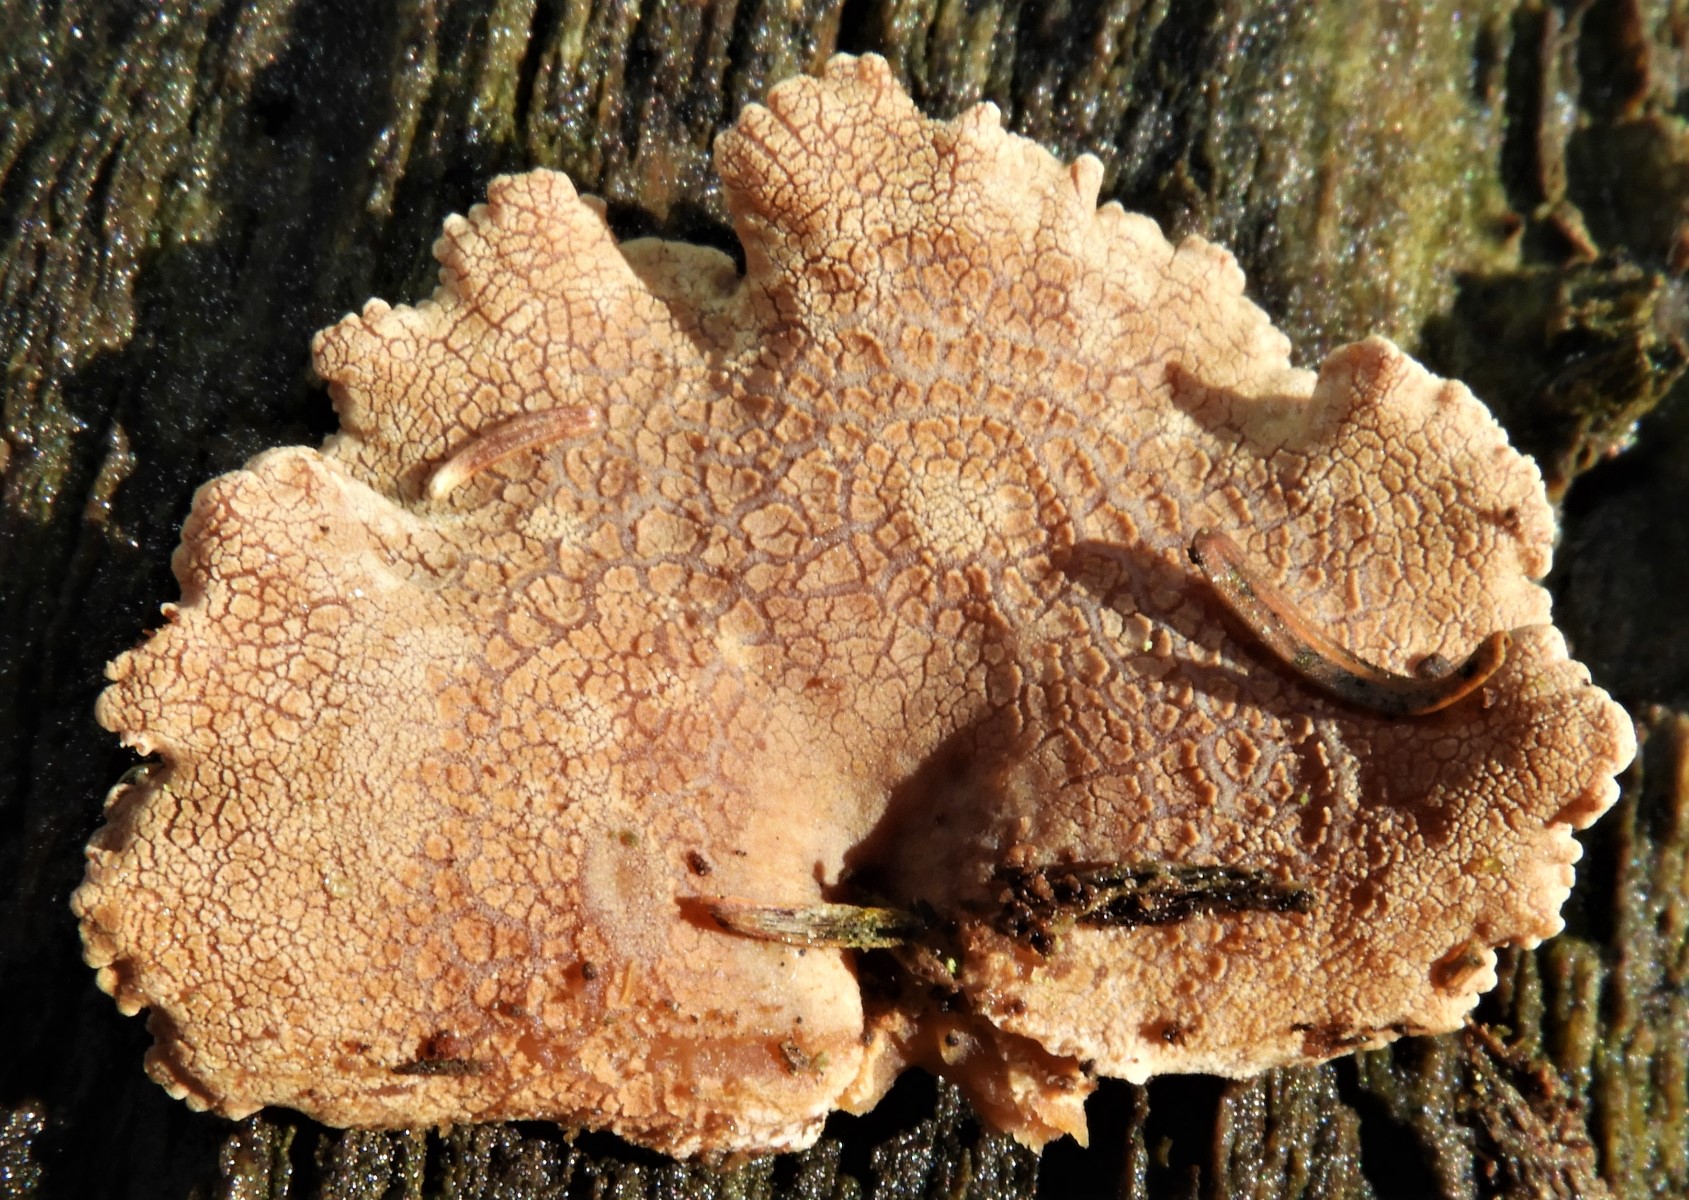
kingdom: Fungi
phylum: Basidiomycota
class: Agaricomycetes
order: Agaricales
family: Mycenaceae
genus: Panellus
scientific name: Panellus stipticus
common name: kliddet epaulethat
